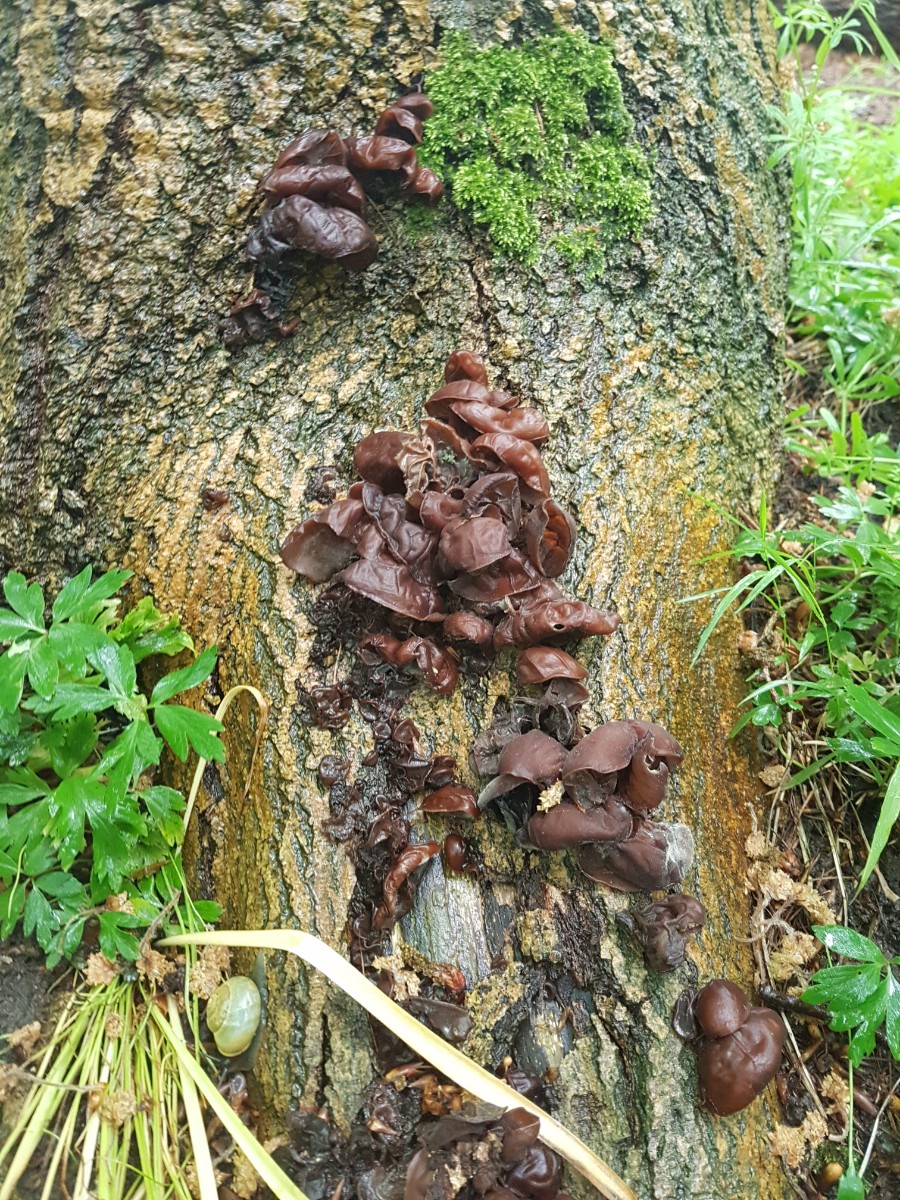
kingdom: Fungi
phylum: Basidiomycota
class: Agaricomycetes
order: Auriculariales
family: Auriculariaceae
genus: Auricularia
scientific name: Auricularia auricula-judae
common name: almindelig judasøre
